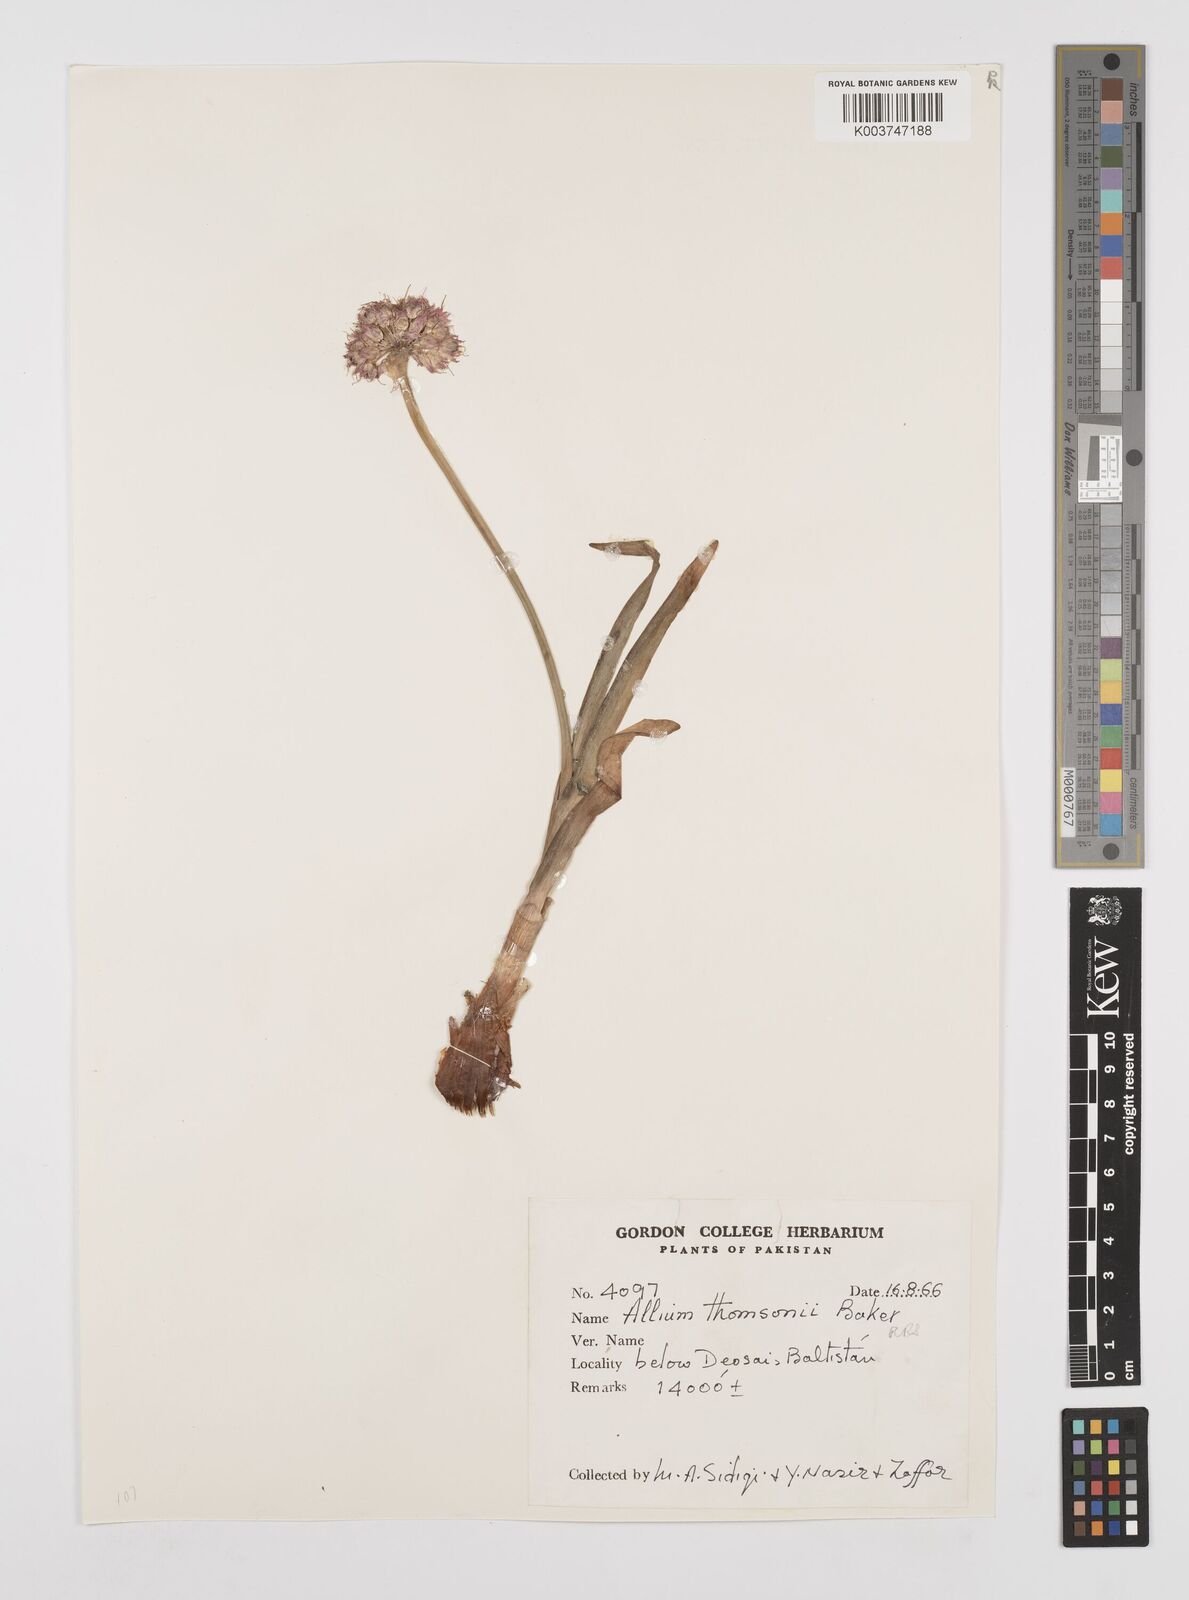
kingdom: Plantae
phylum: Tracheophyta
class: Liliopsida
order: Asparagales
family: Amaryllidaceae
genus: Allium
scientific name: Allium carolinianum
